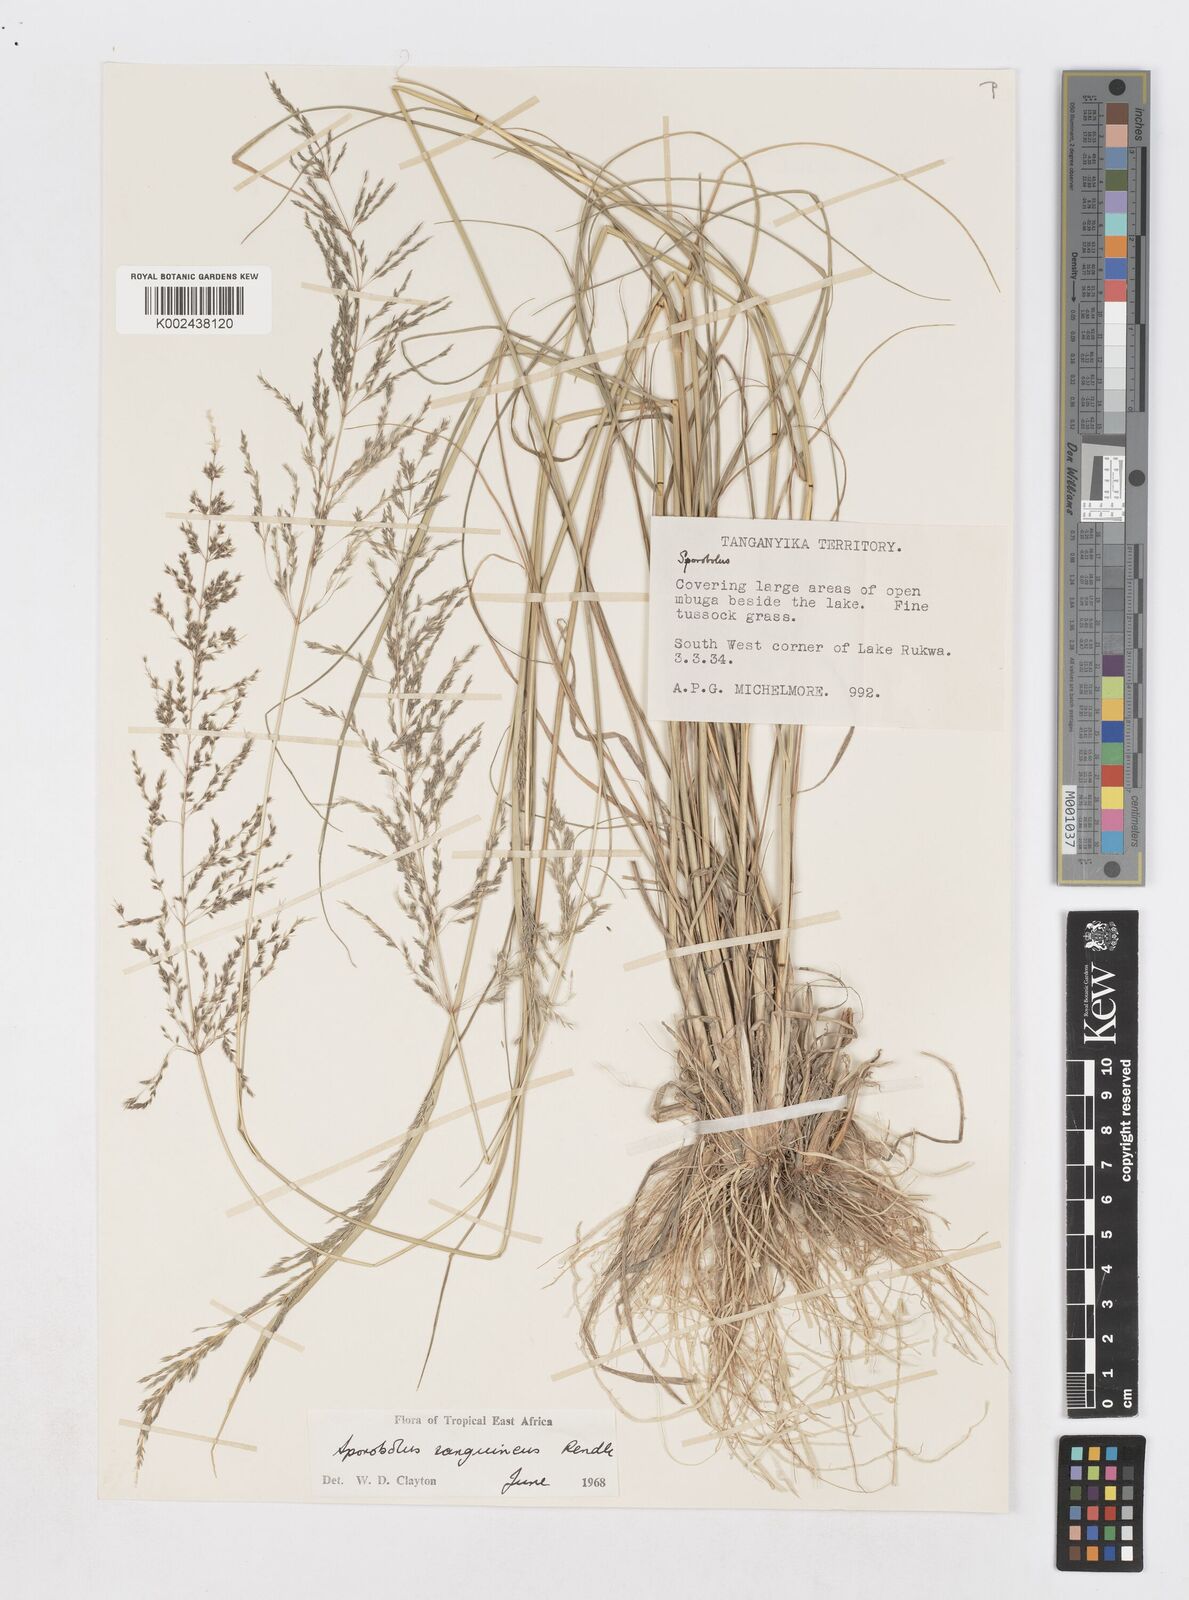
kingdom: Plantae
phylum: Tracheophyta
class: Liliopsida
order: Poales
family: Poaceae
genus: Sporobolus
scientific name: Sporobolus sanguineus
